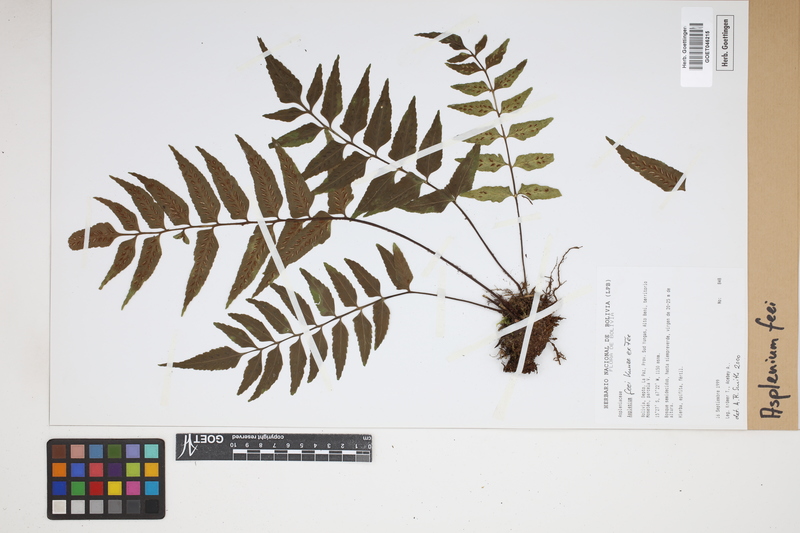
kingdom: Plantae
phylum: Tracheophyta
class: Polypodiopsida
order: Polypodiales
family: Aspleniaceae
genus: Asplenium
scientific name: Asplenium feei
